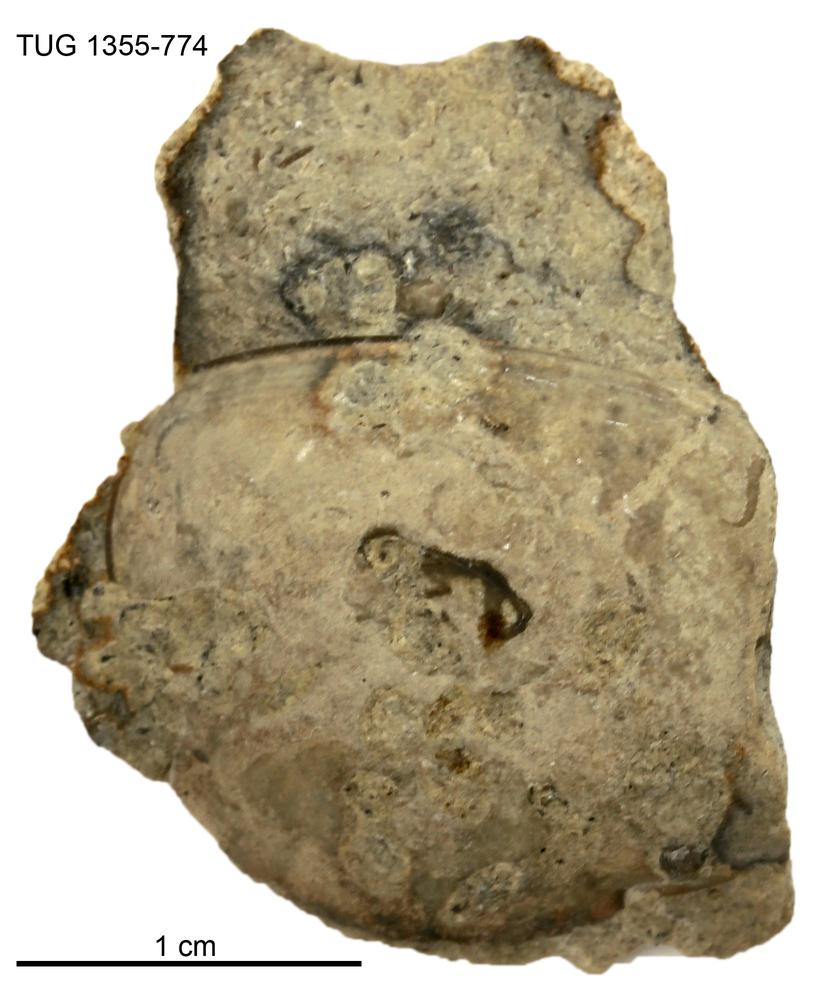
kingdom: Animalia
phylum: Arthropoda
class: Trilobita
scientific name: Trilobita
